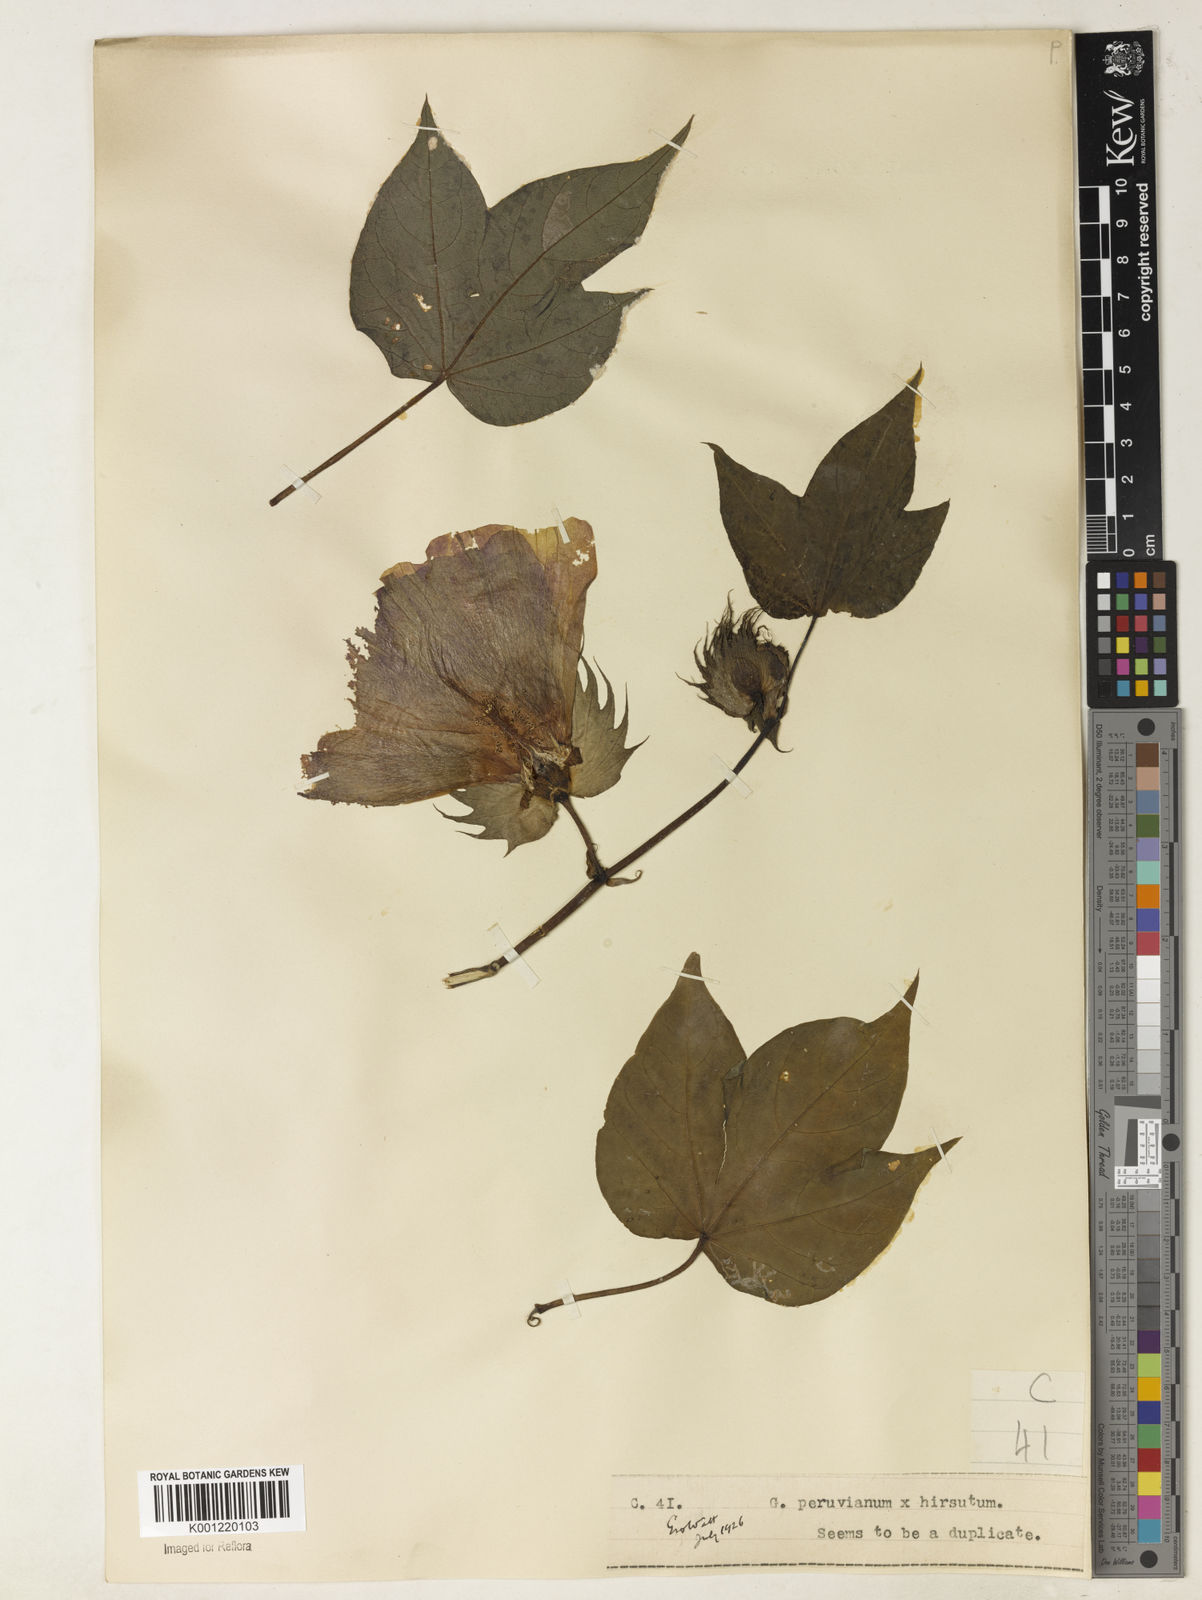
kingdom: Plantae
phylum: Tracheophyta
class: Magnoliopsida
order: Malvales
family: Malvaceae
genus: Gossypium
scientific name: Gossypium
